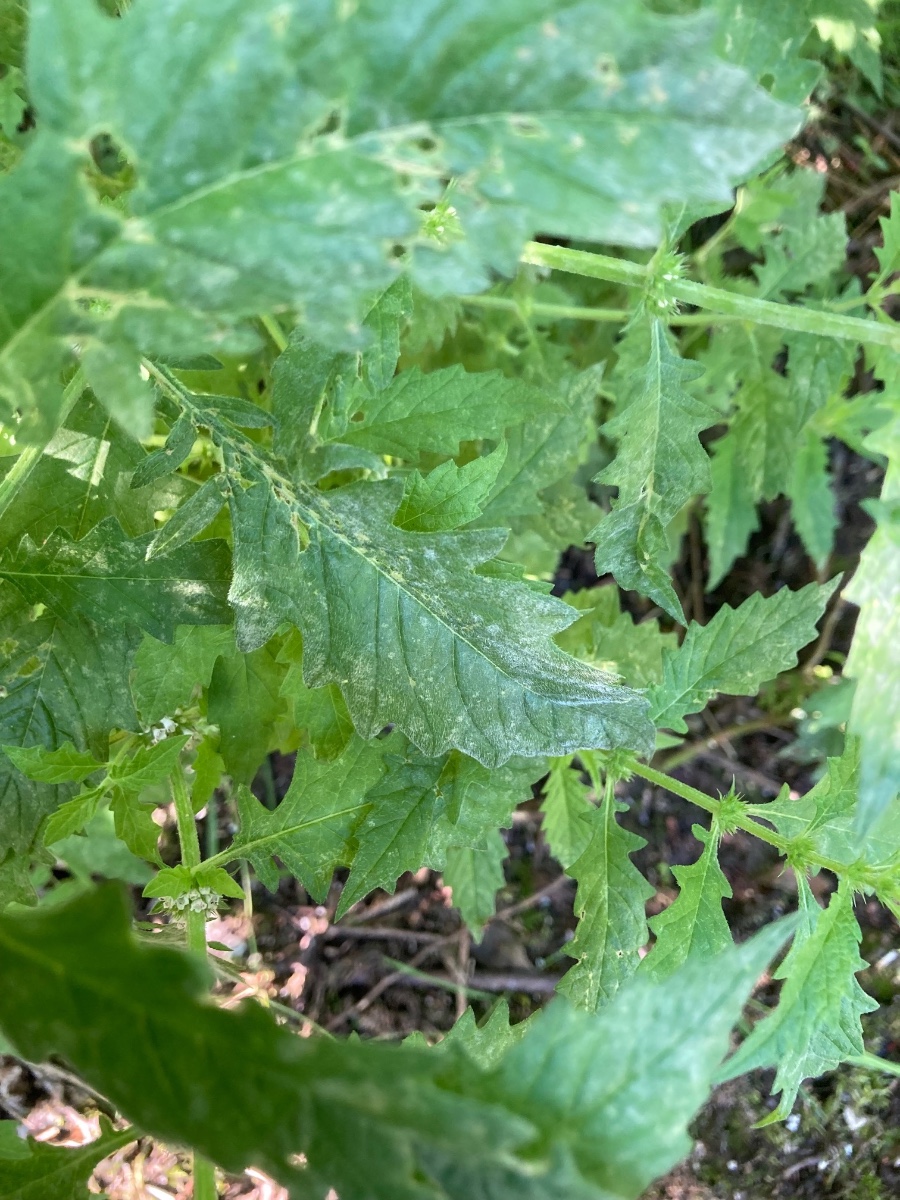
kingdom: Fungi
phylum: Ascomycota
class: Leotiomycetes
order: Helotiales
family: Erysiphaceae
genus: Golovinomyces
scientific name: Golovinomyces biocellatus
